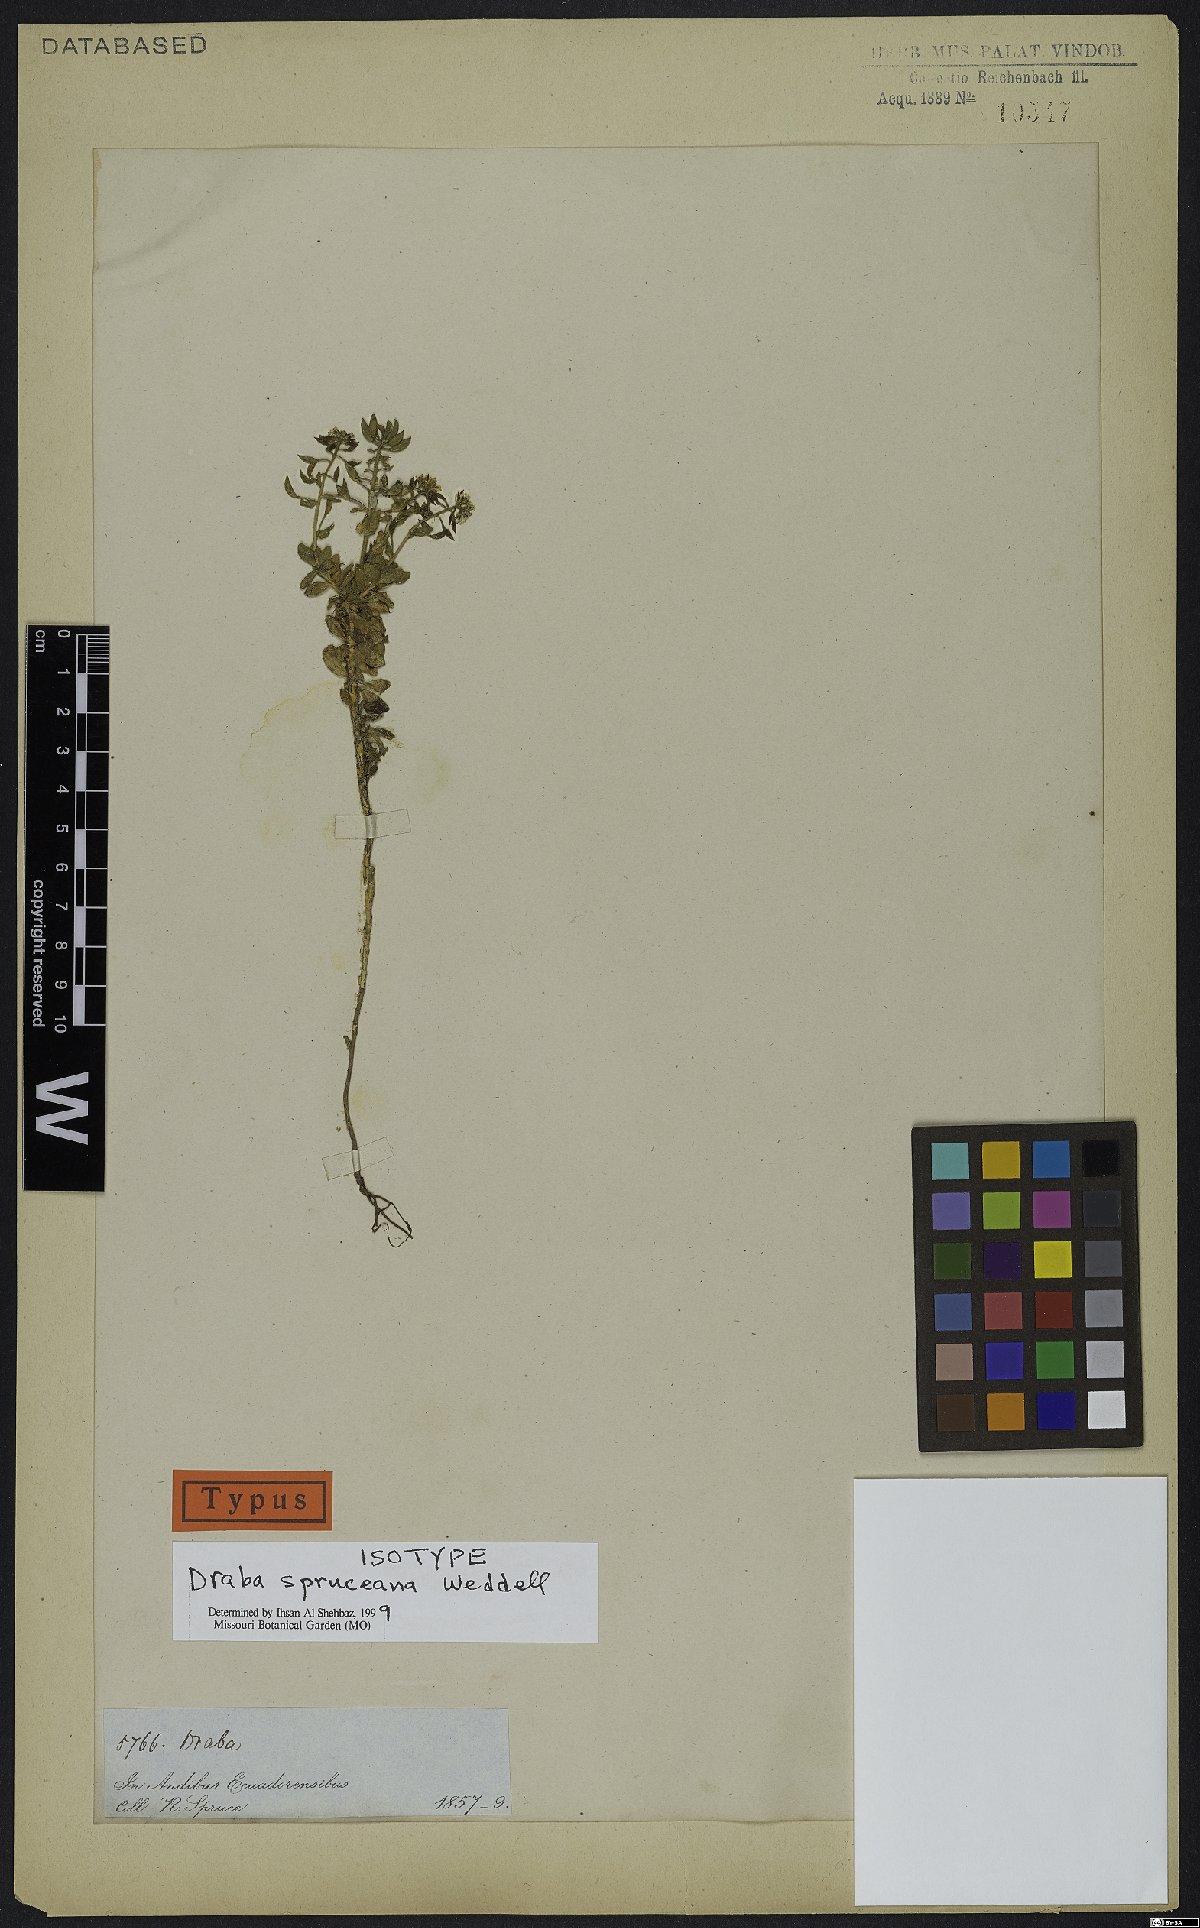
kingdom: Plantae
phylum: Tracheophyta
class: Magnoliopsida
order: Brassicales
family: Brassicaceae
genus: Draba
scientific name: Draba spruceana
